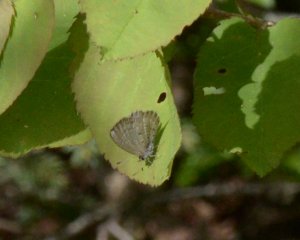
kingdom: Animalia
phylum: Arthropoda
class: Insecta
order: Lepidoptera
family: Lycaenidae
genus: Celastrina
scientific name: Celastrina lucia
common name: Northern Spring Azure
